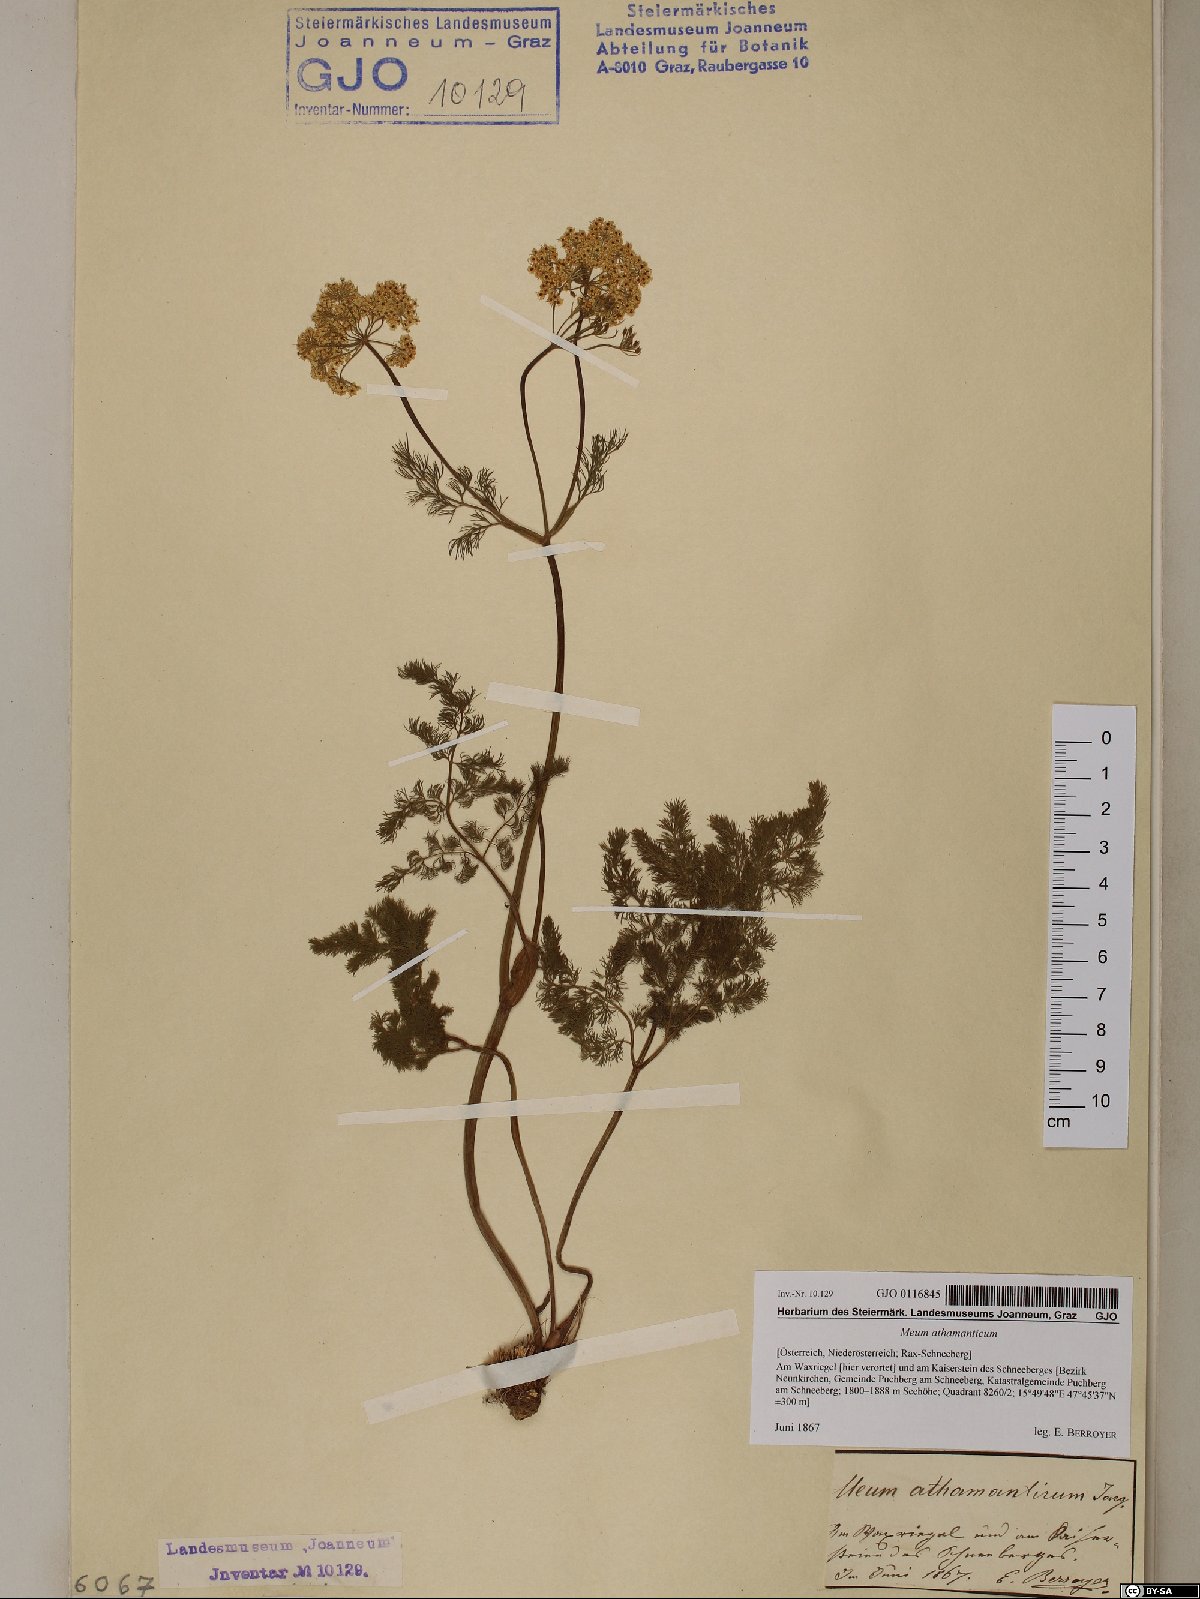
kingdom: Plantae
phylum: Tracheophyta
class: Magnoliopsida
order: Apiales
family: Apiaceae
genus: Meum
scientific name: Meum athamanticum
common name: Spignel
